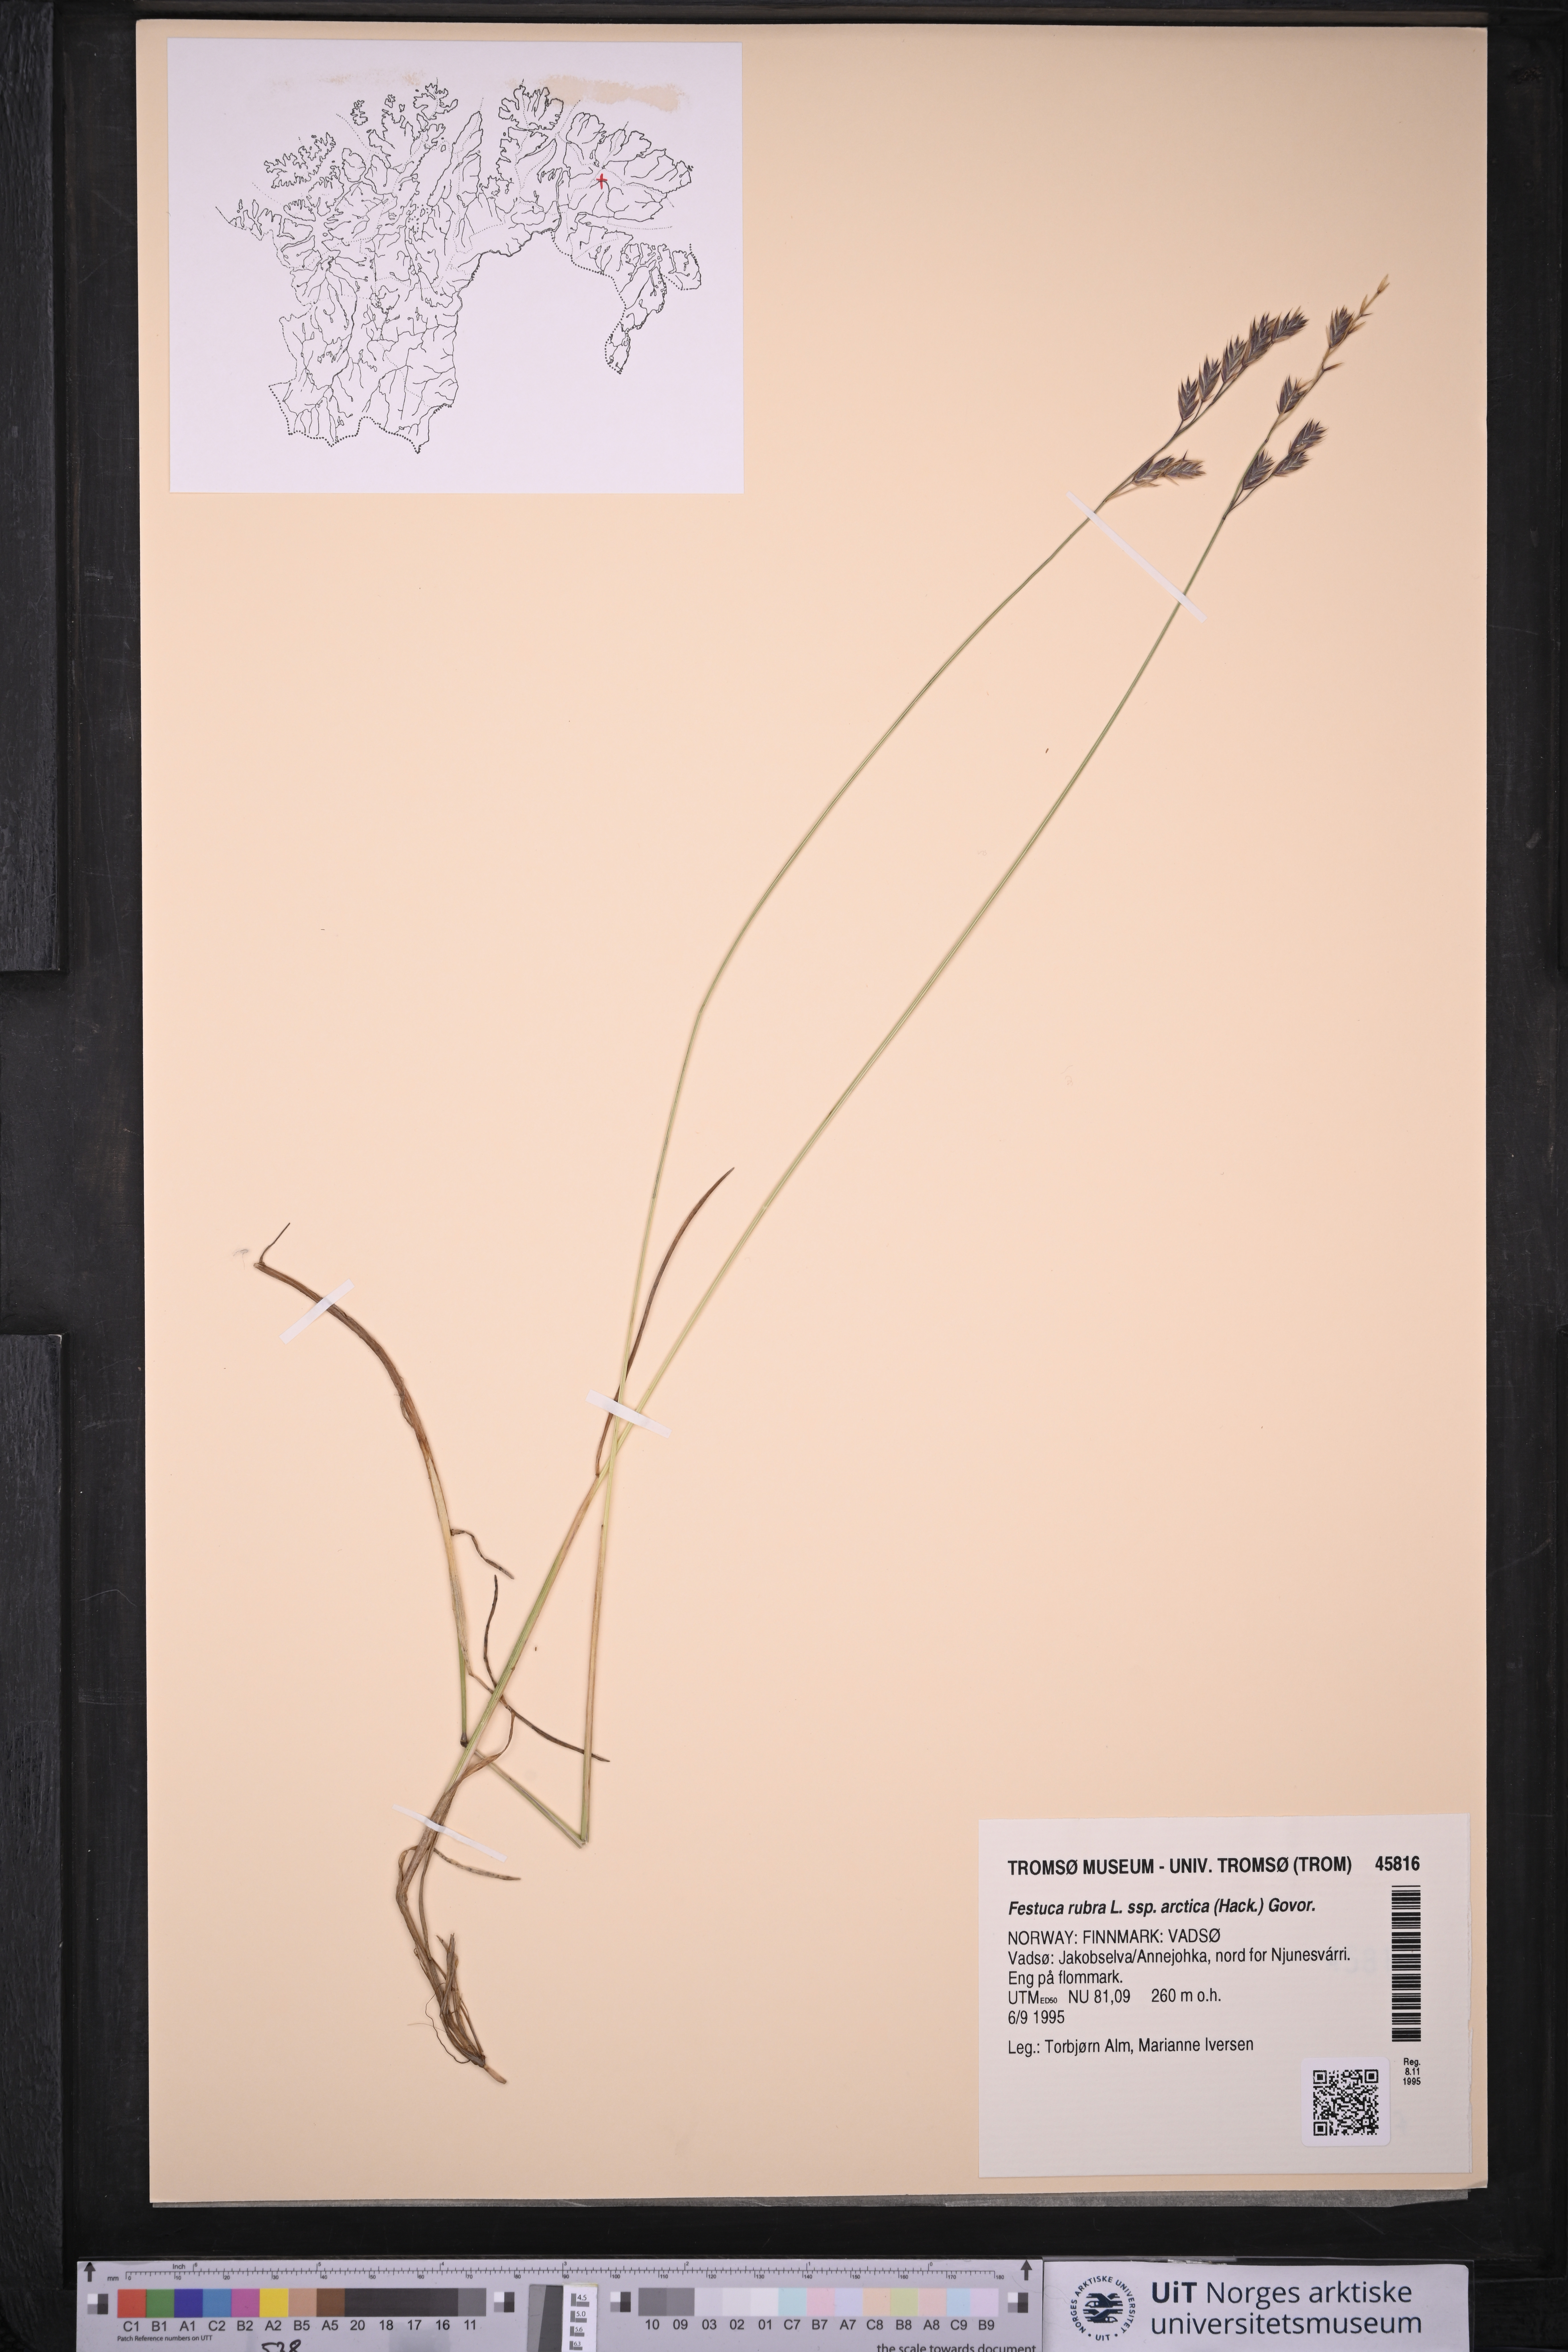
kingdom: Plantae
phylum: Tracheophyta
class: Liliopsida
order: Poales
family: Poaceae
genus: Festuca
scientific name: Festuca richardsonii
